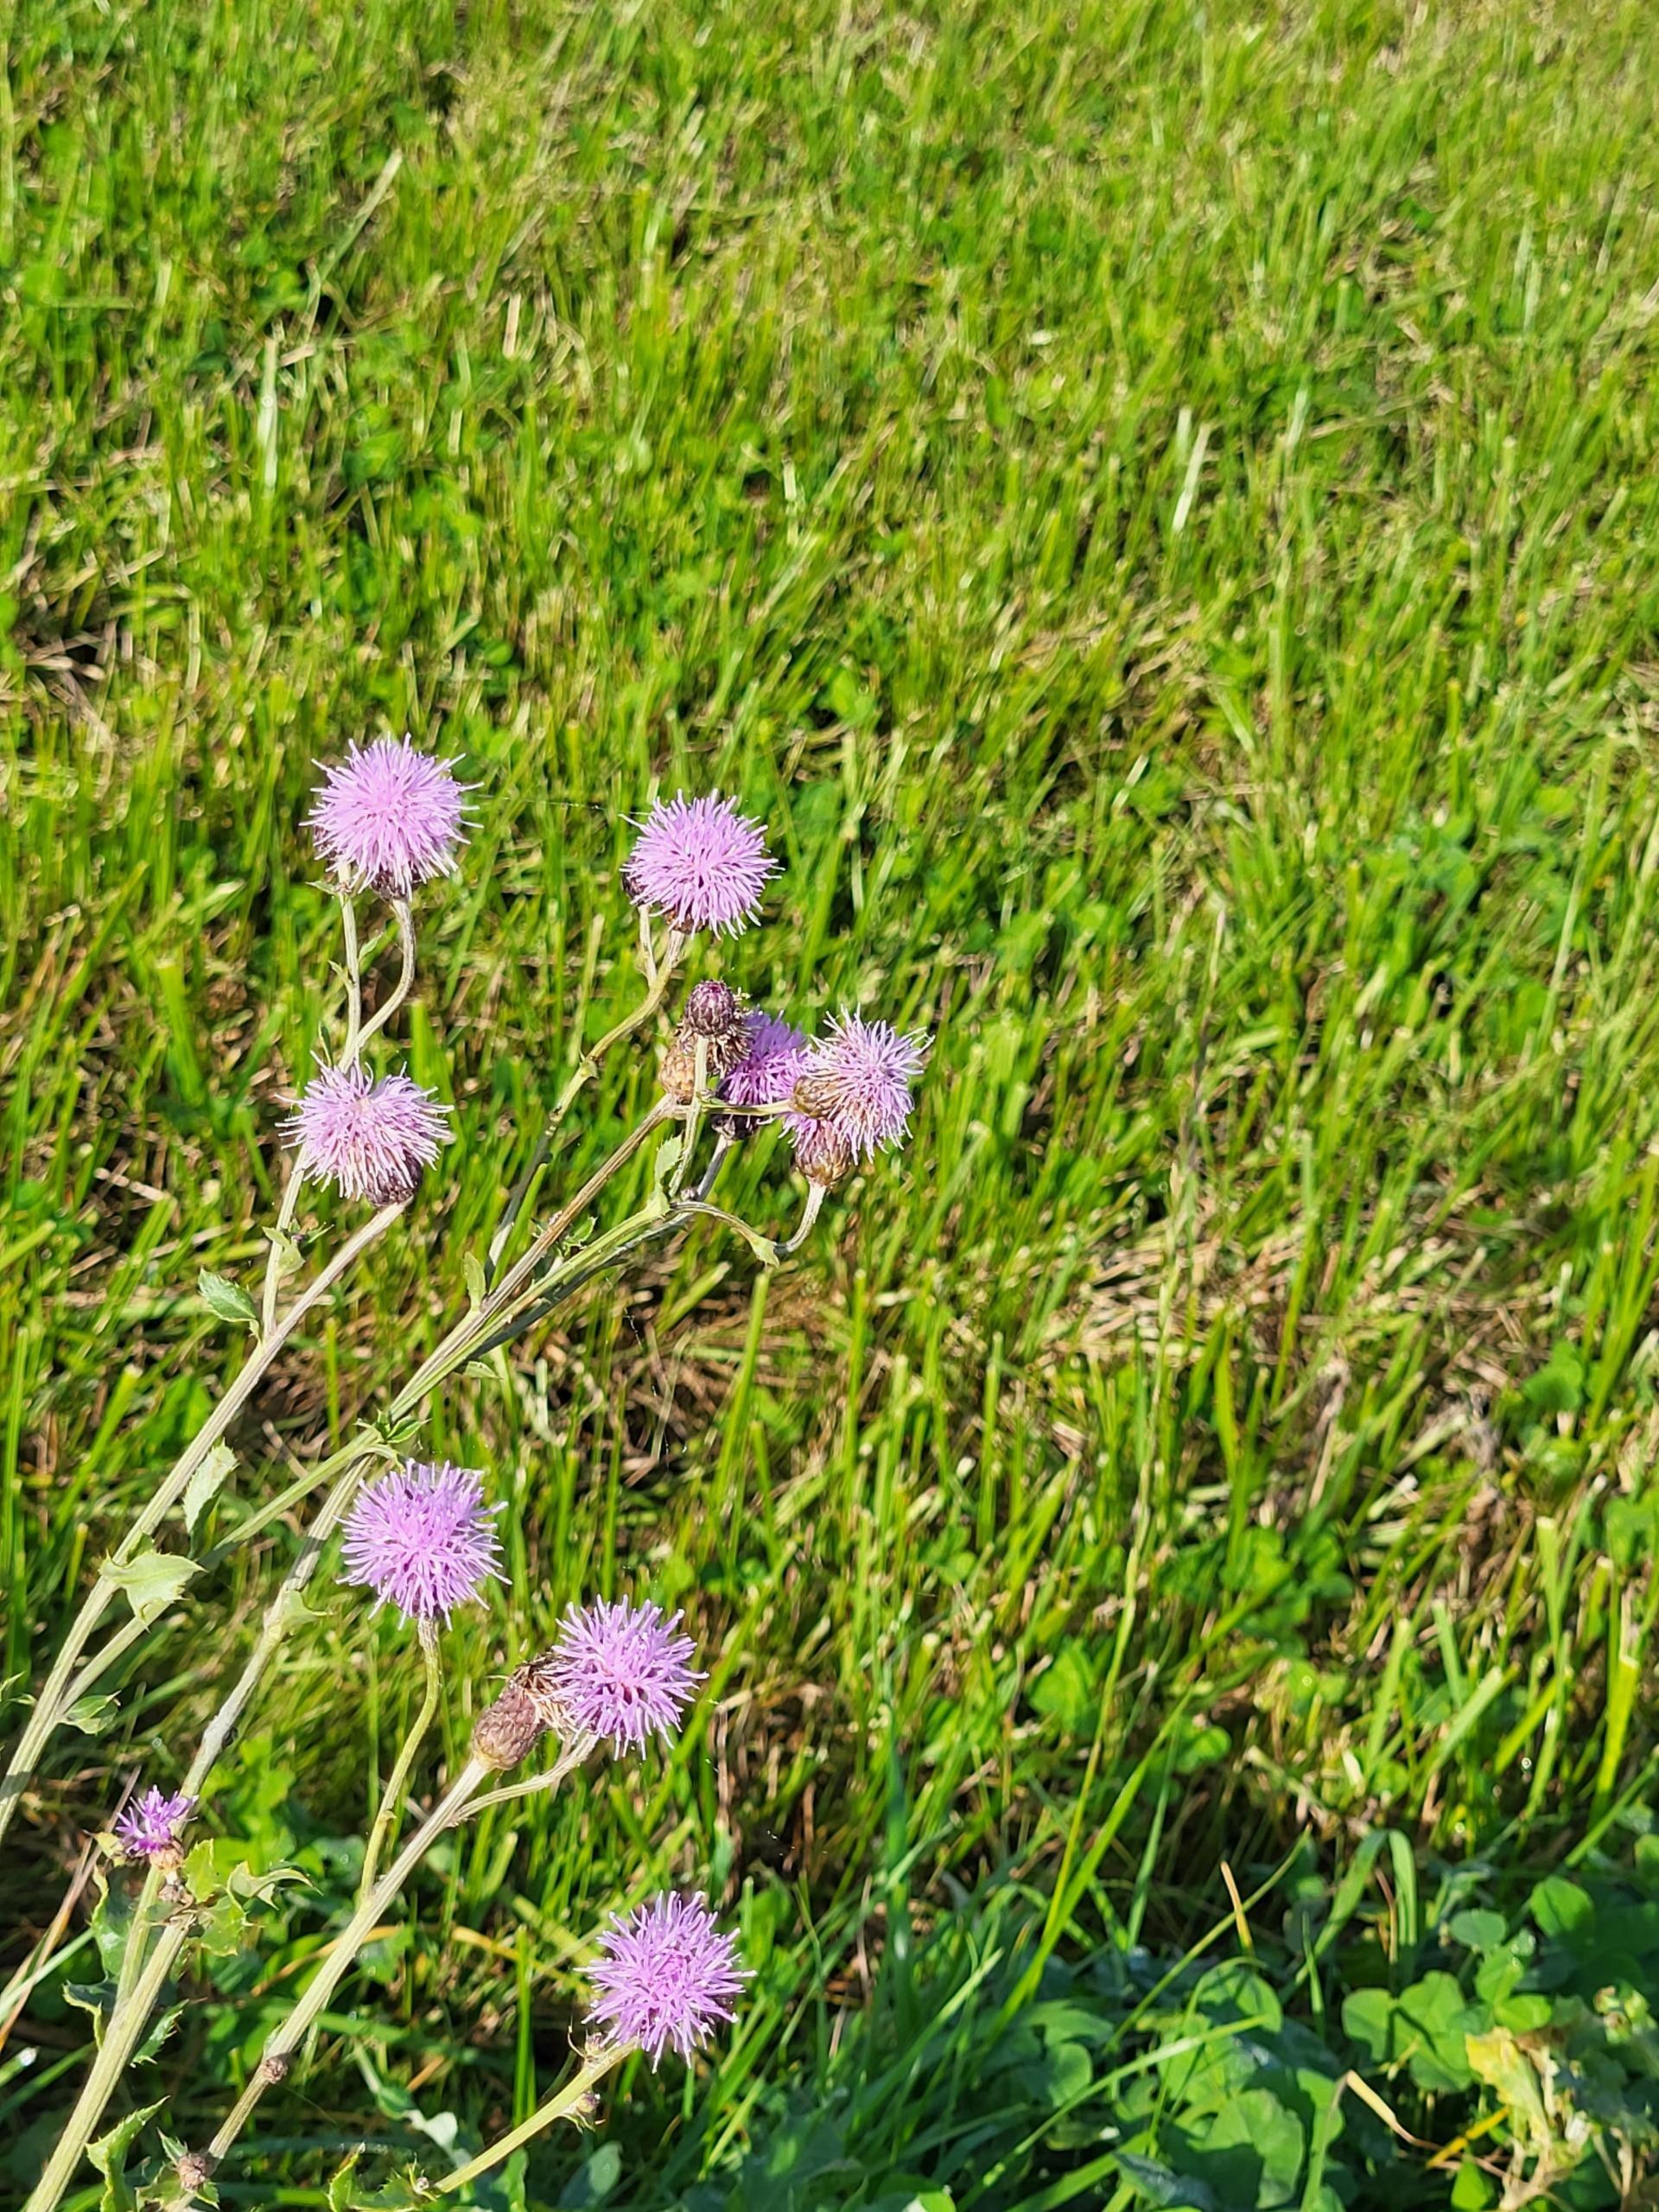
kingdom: Plantae
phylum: Tracheophyta
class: Magnoliopsida
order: Asterales
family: Asteraceae
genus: Cirsium
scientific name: Cirsium arvense
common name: Ager-tidsel
